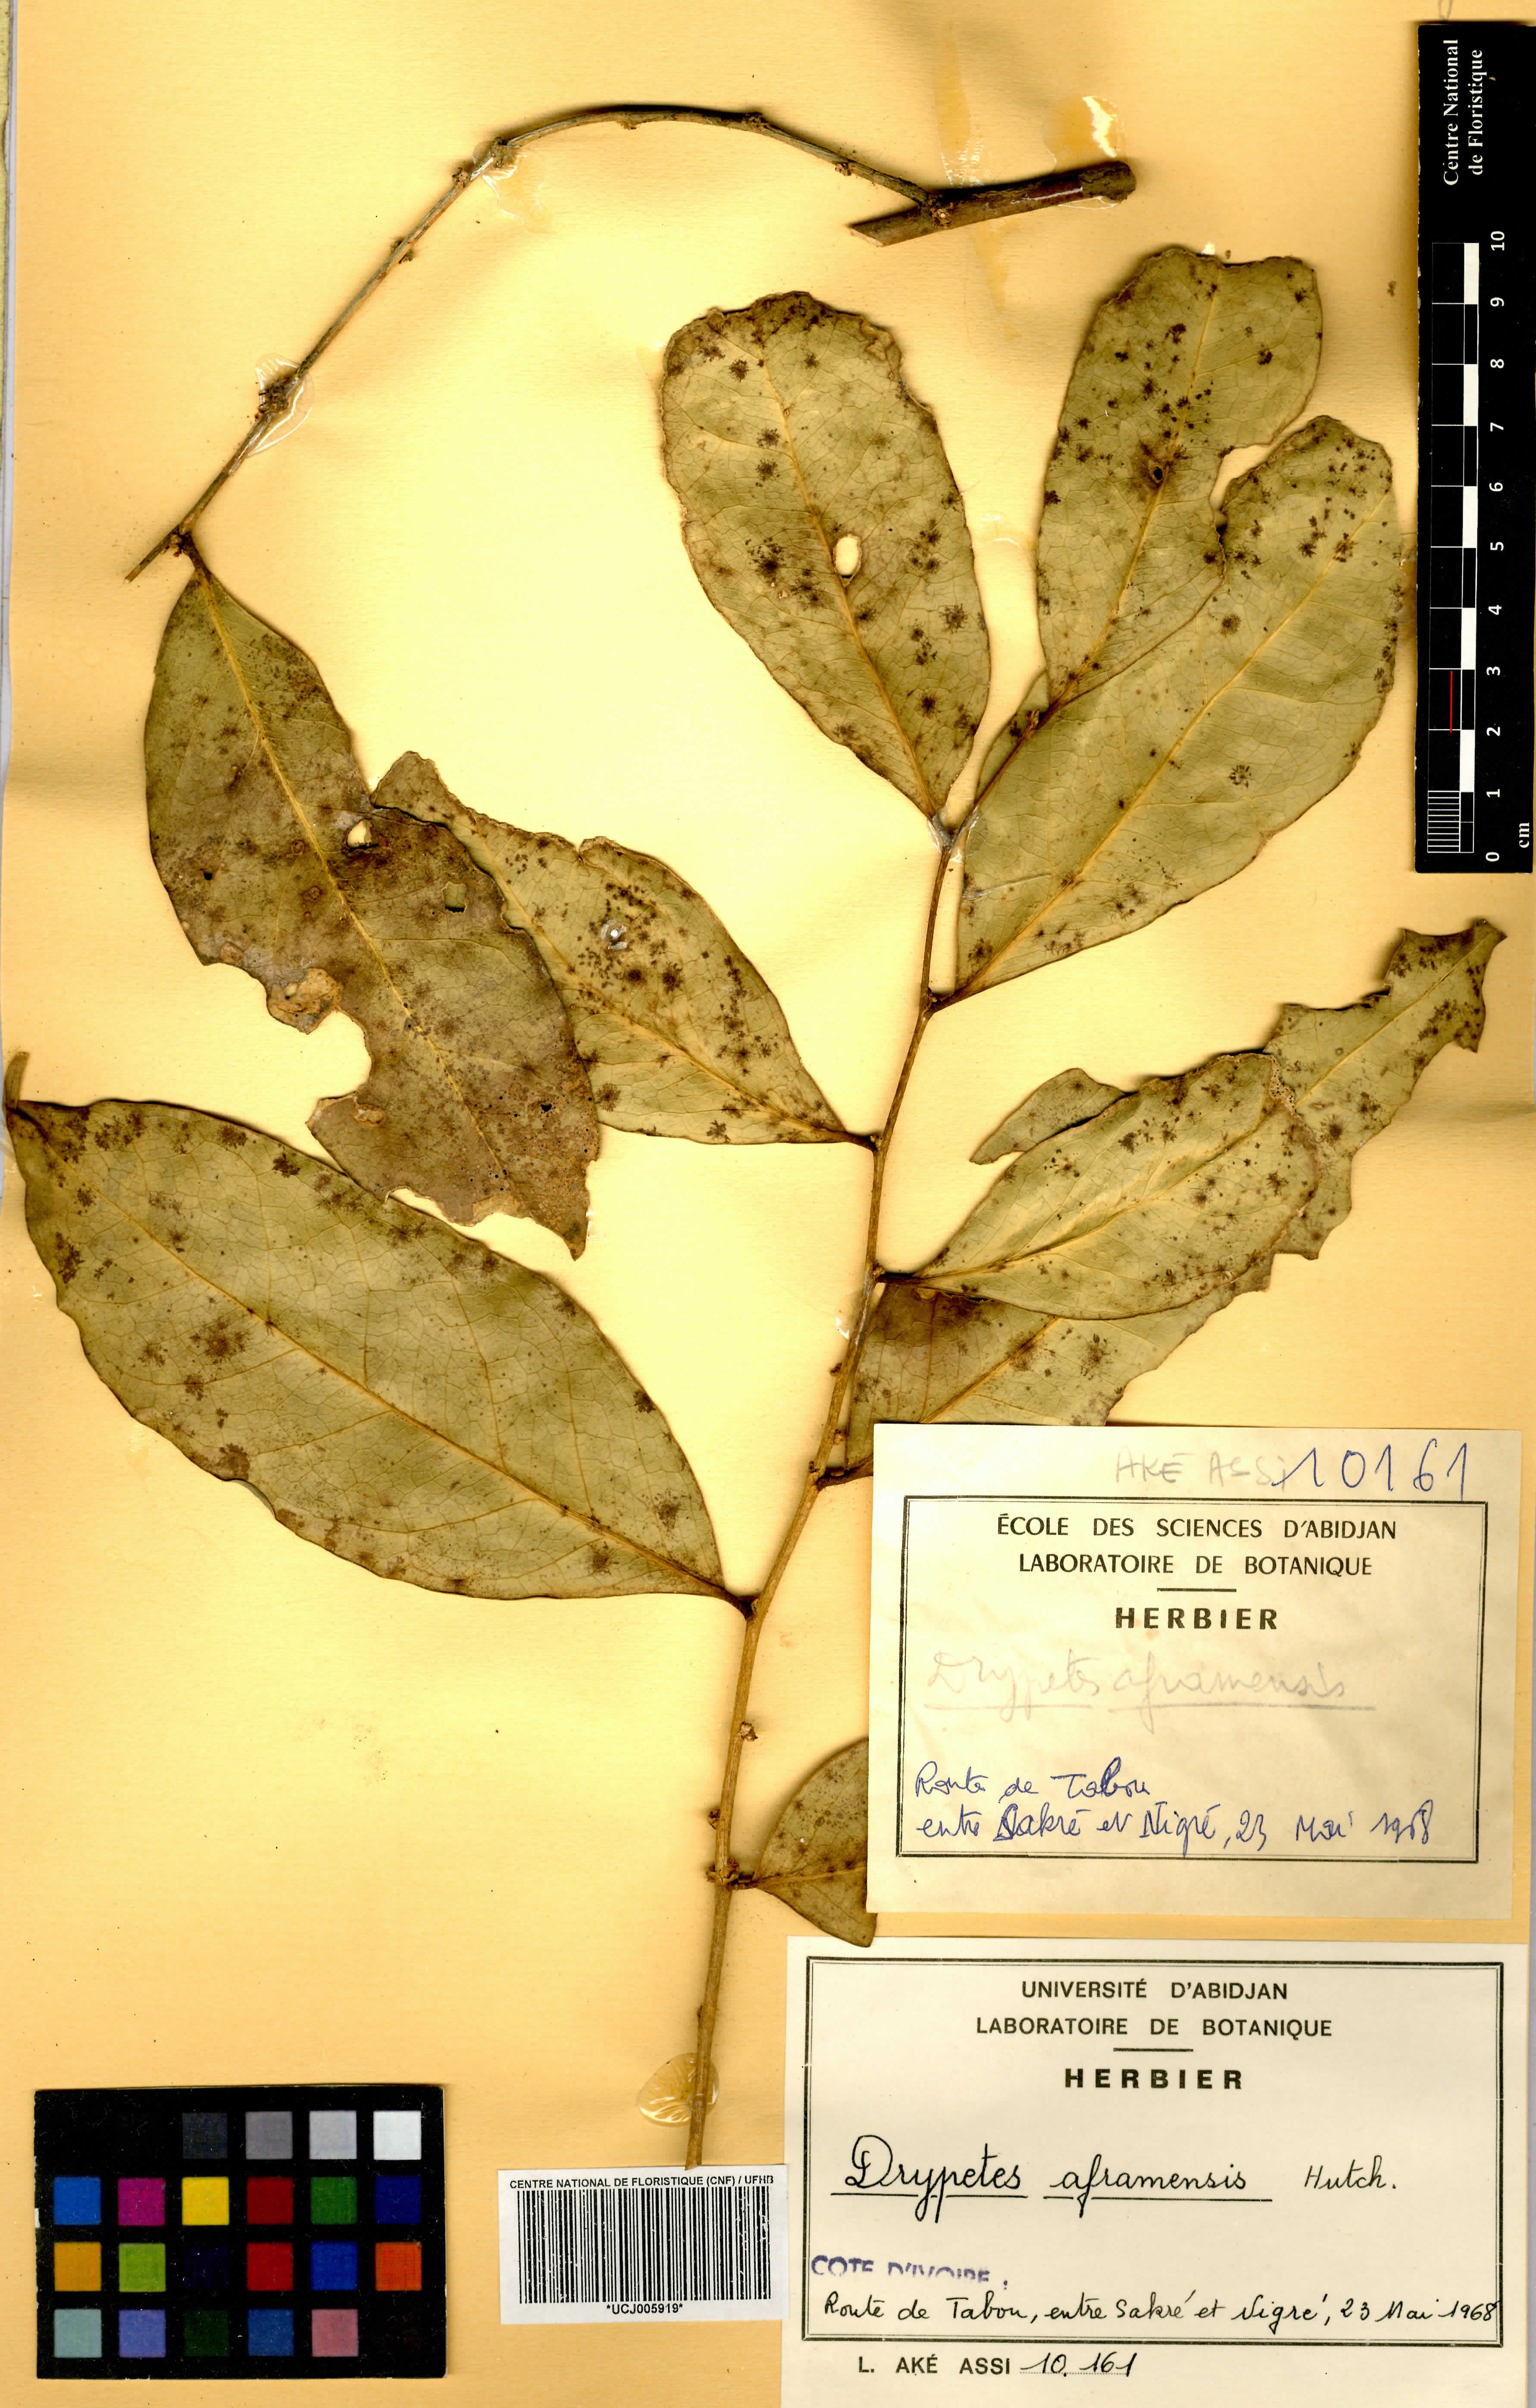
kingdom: Plantae
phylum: Tracheophyta
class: Magnoliopsida
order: Malpighiales
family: Putranjivaceae
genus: Drypetes
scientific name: Drypetes aframensis
